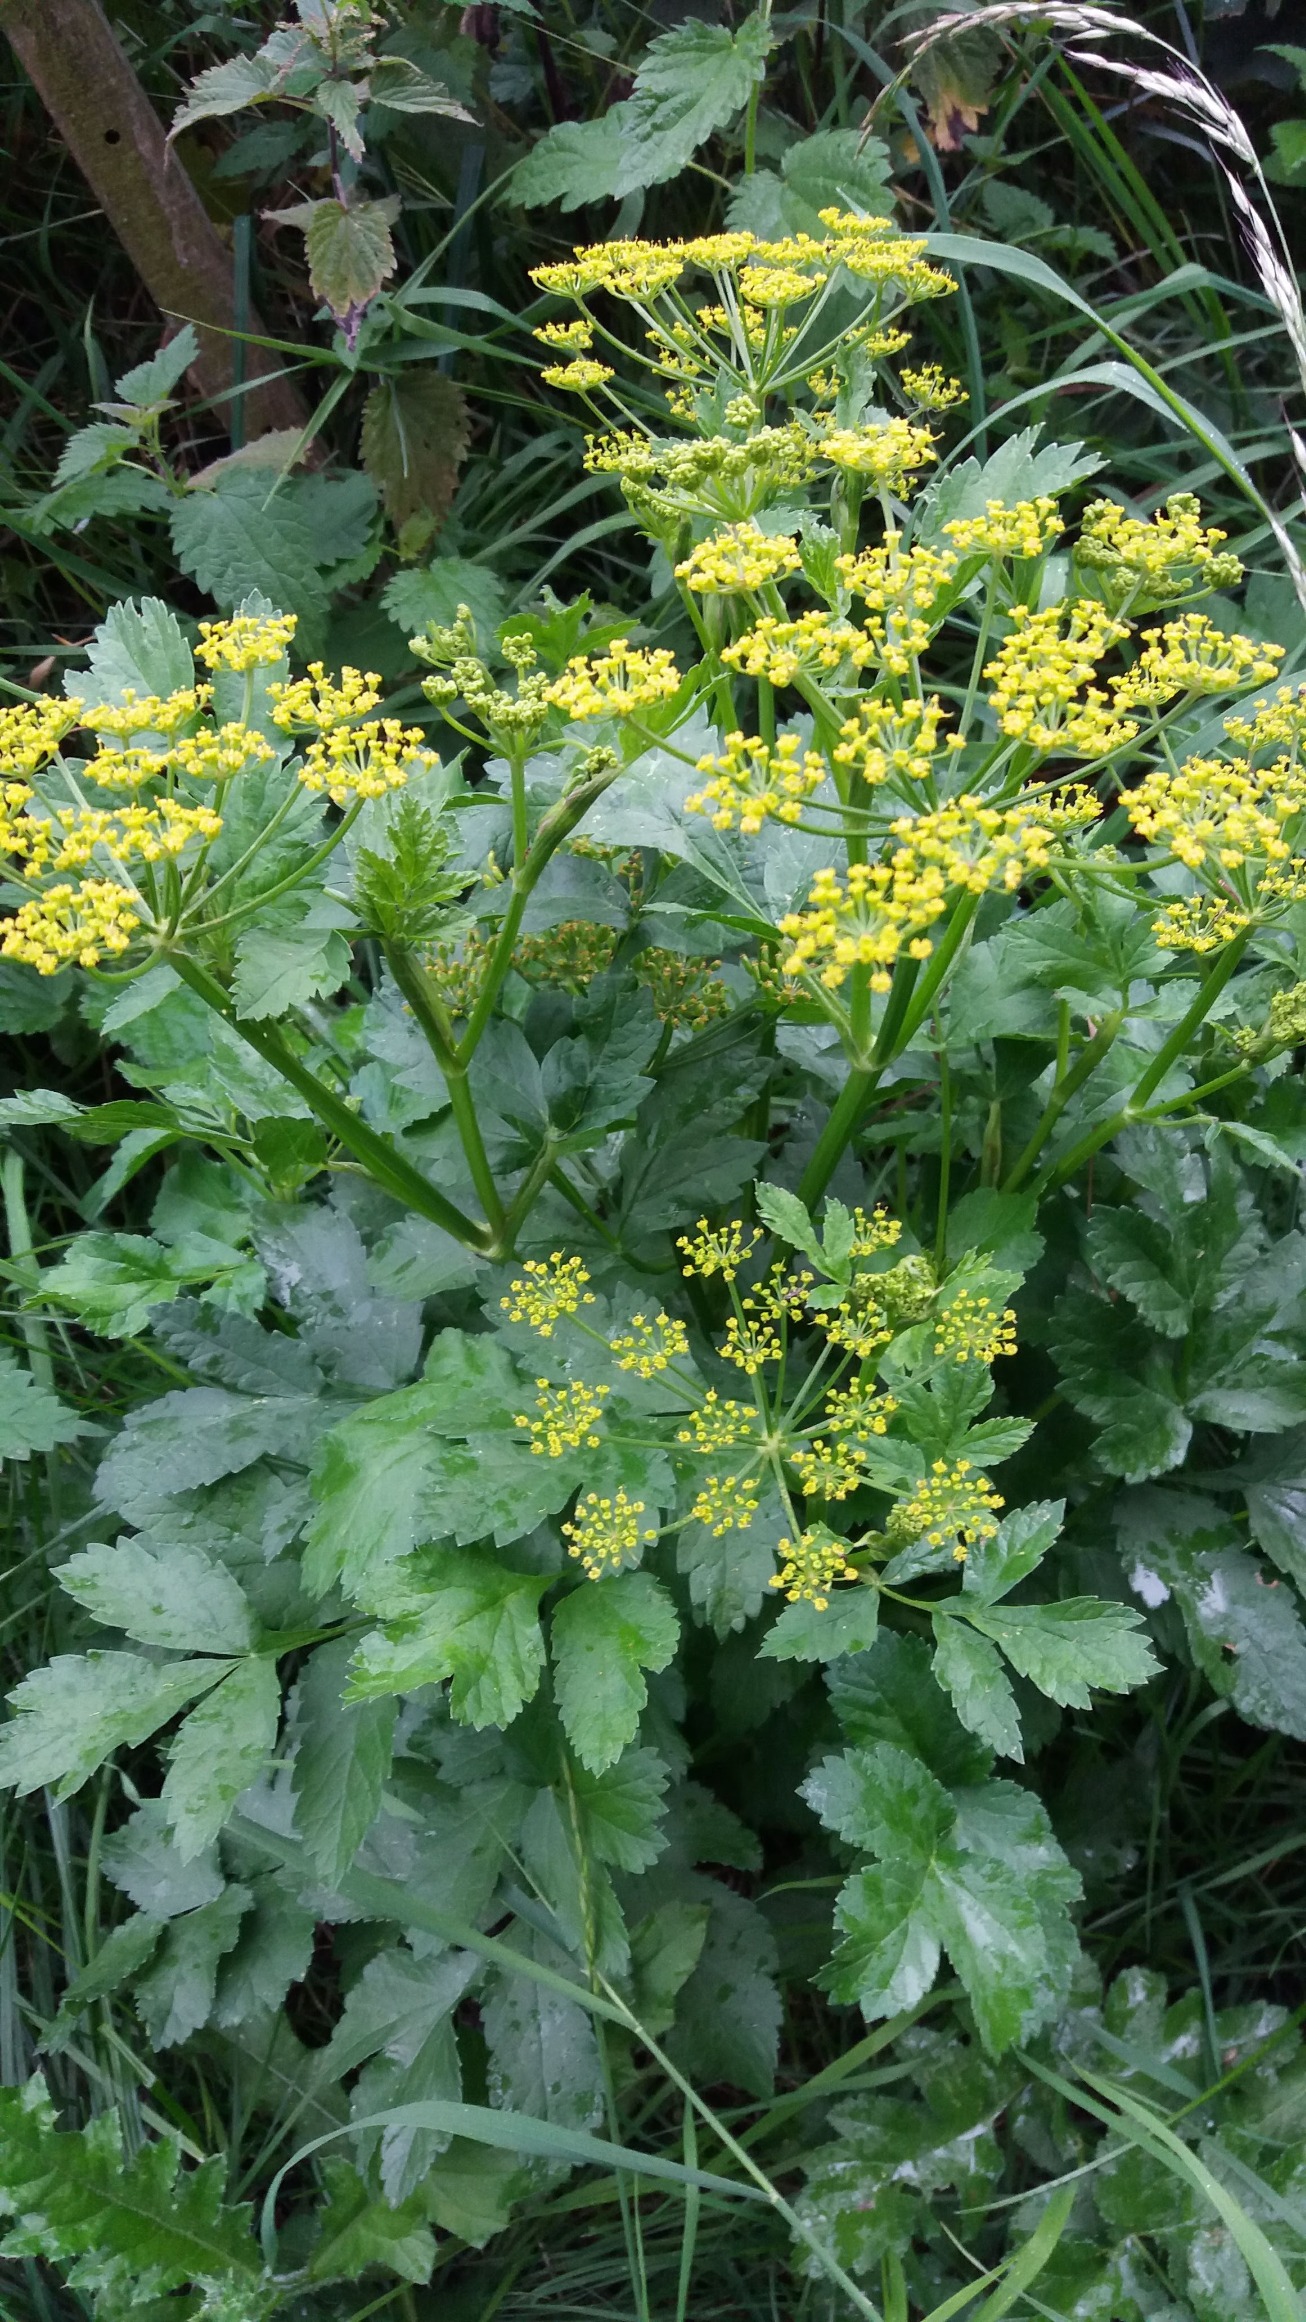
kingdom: Plantae
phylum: Tracheophyta
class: Magnoliopsida
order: Apiales
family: Apiaceae
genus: Pastinaca
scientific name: Pastinaca sativa
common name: Have-pastinak
